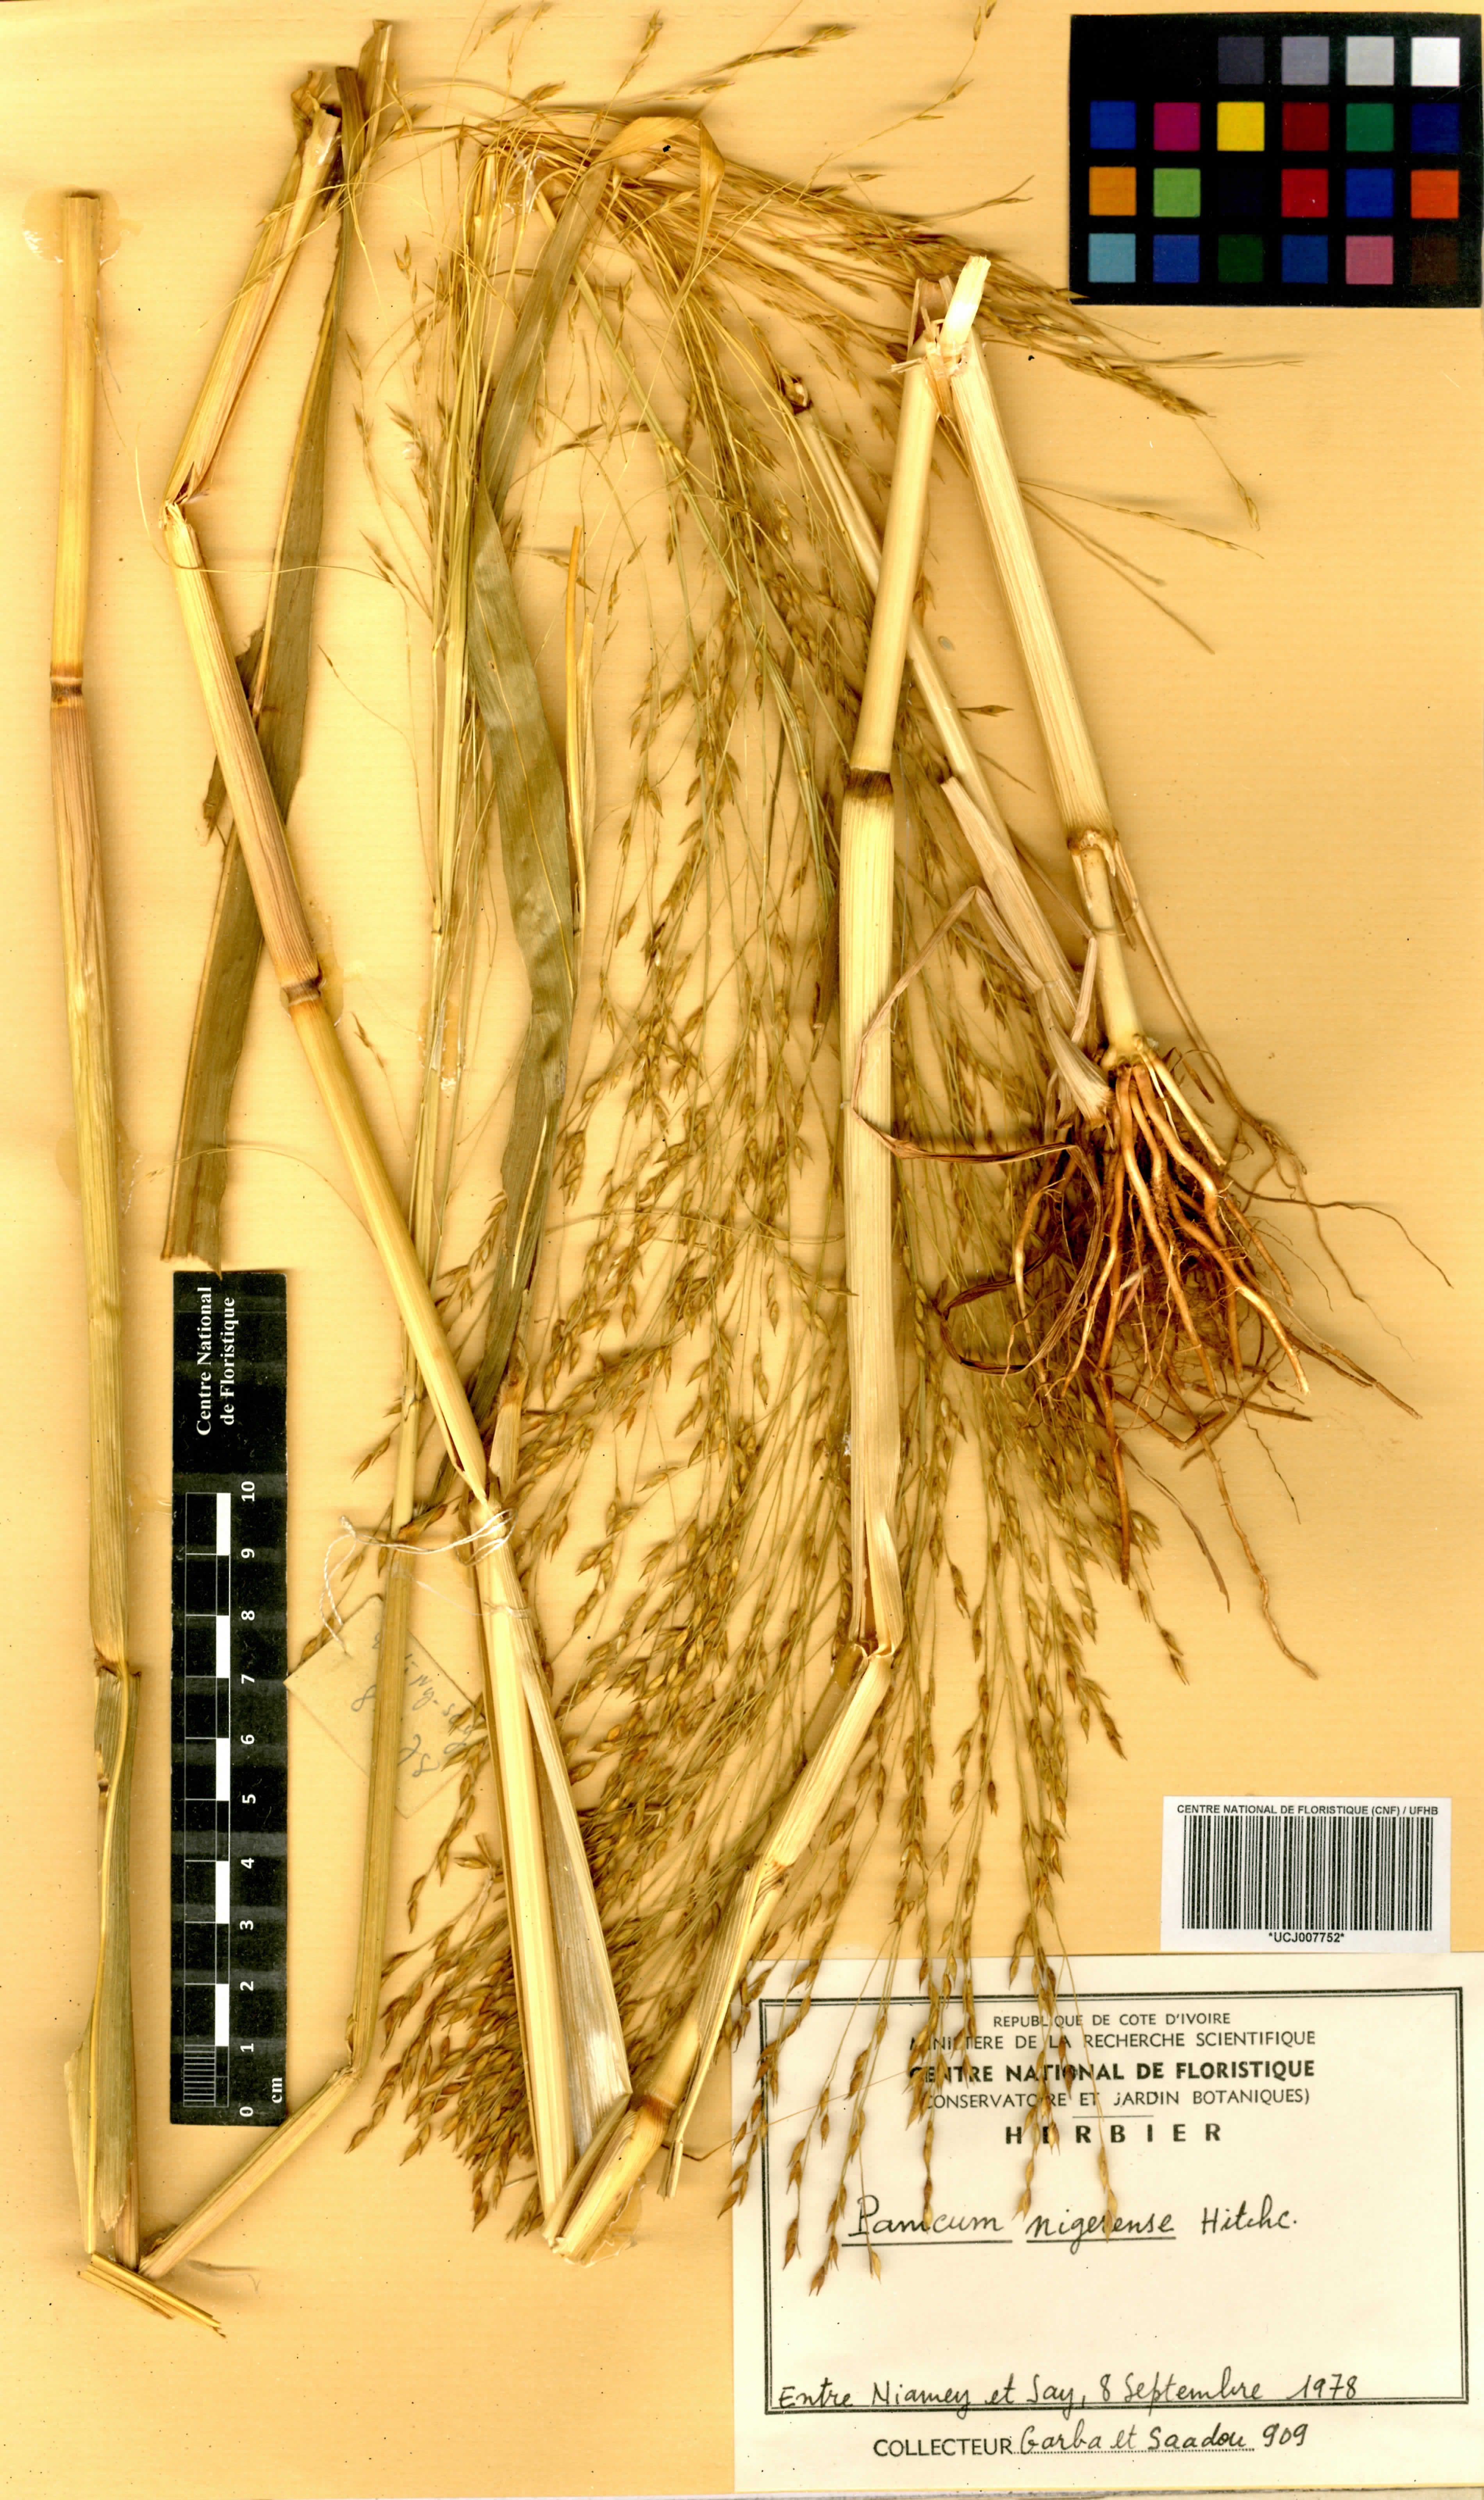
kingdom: Plantae
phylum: Tracheophyta
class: Liliopsida
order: Poales
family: Poaceae
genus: Panicum
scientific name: Panicum nigerense
